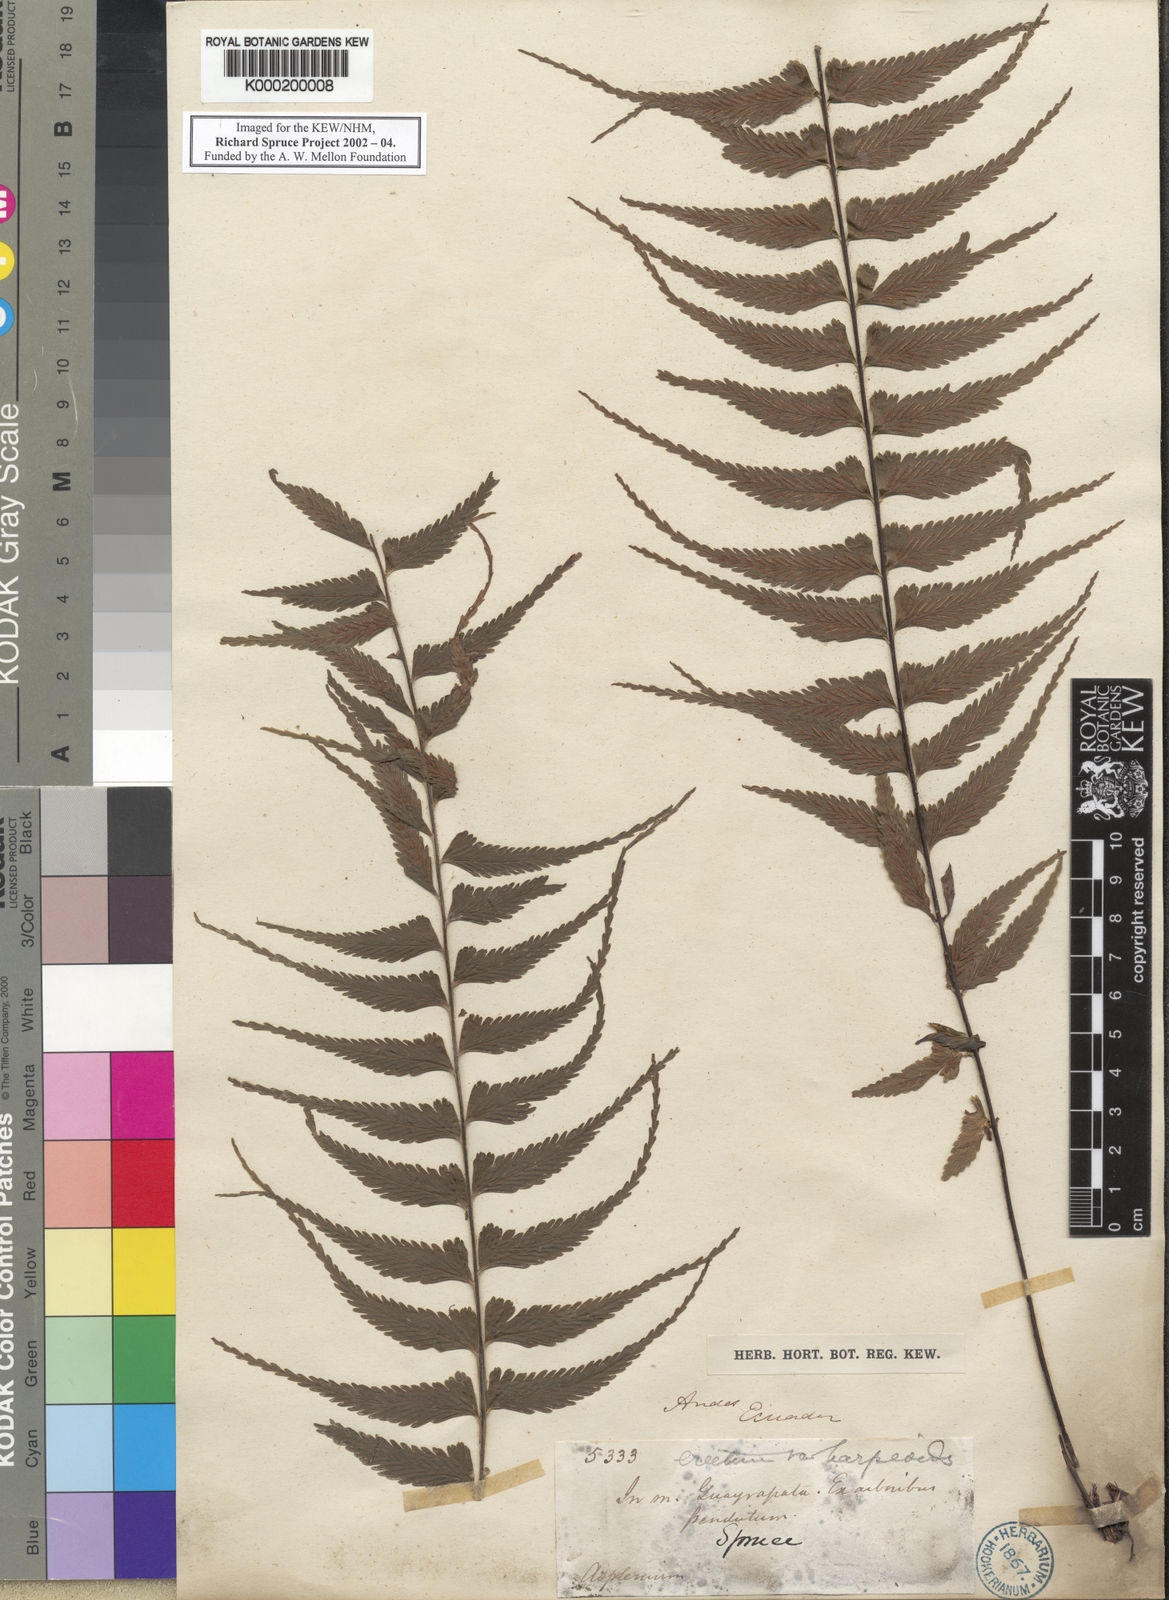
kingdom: Plantae
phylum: Tracheophyta
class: Polypodiopsida
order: Polypodiales
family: Aspleniaceae
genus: Asplenium
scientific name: Asplenium harpeodes
